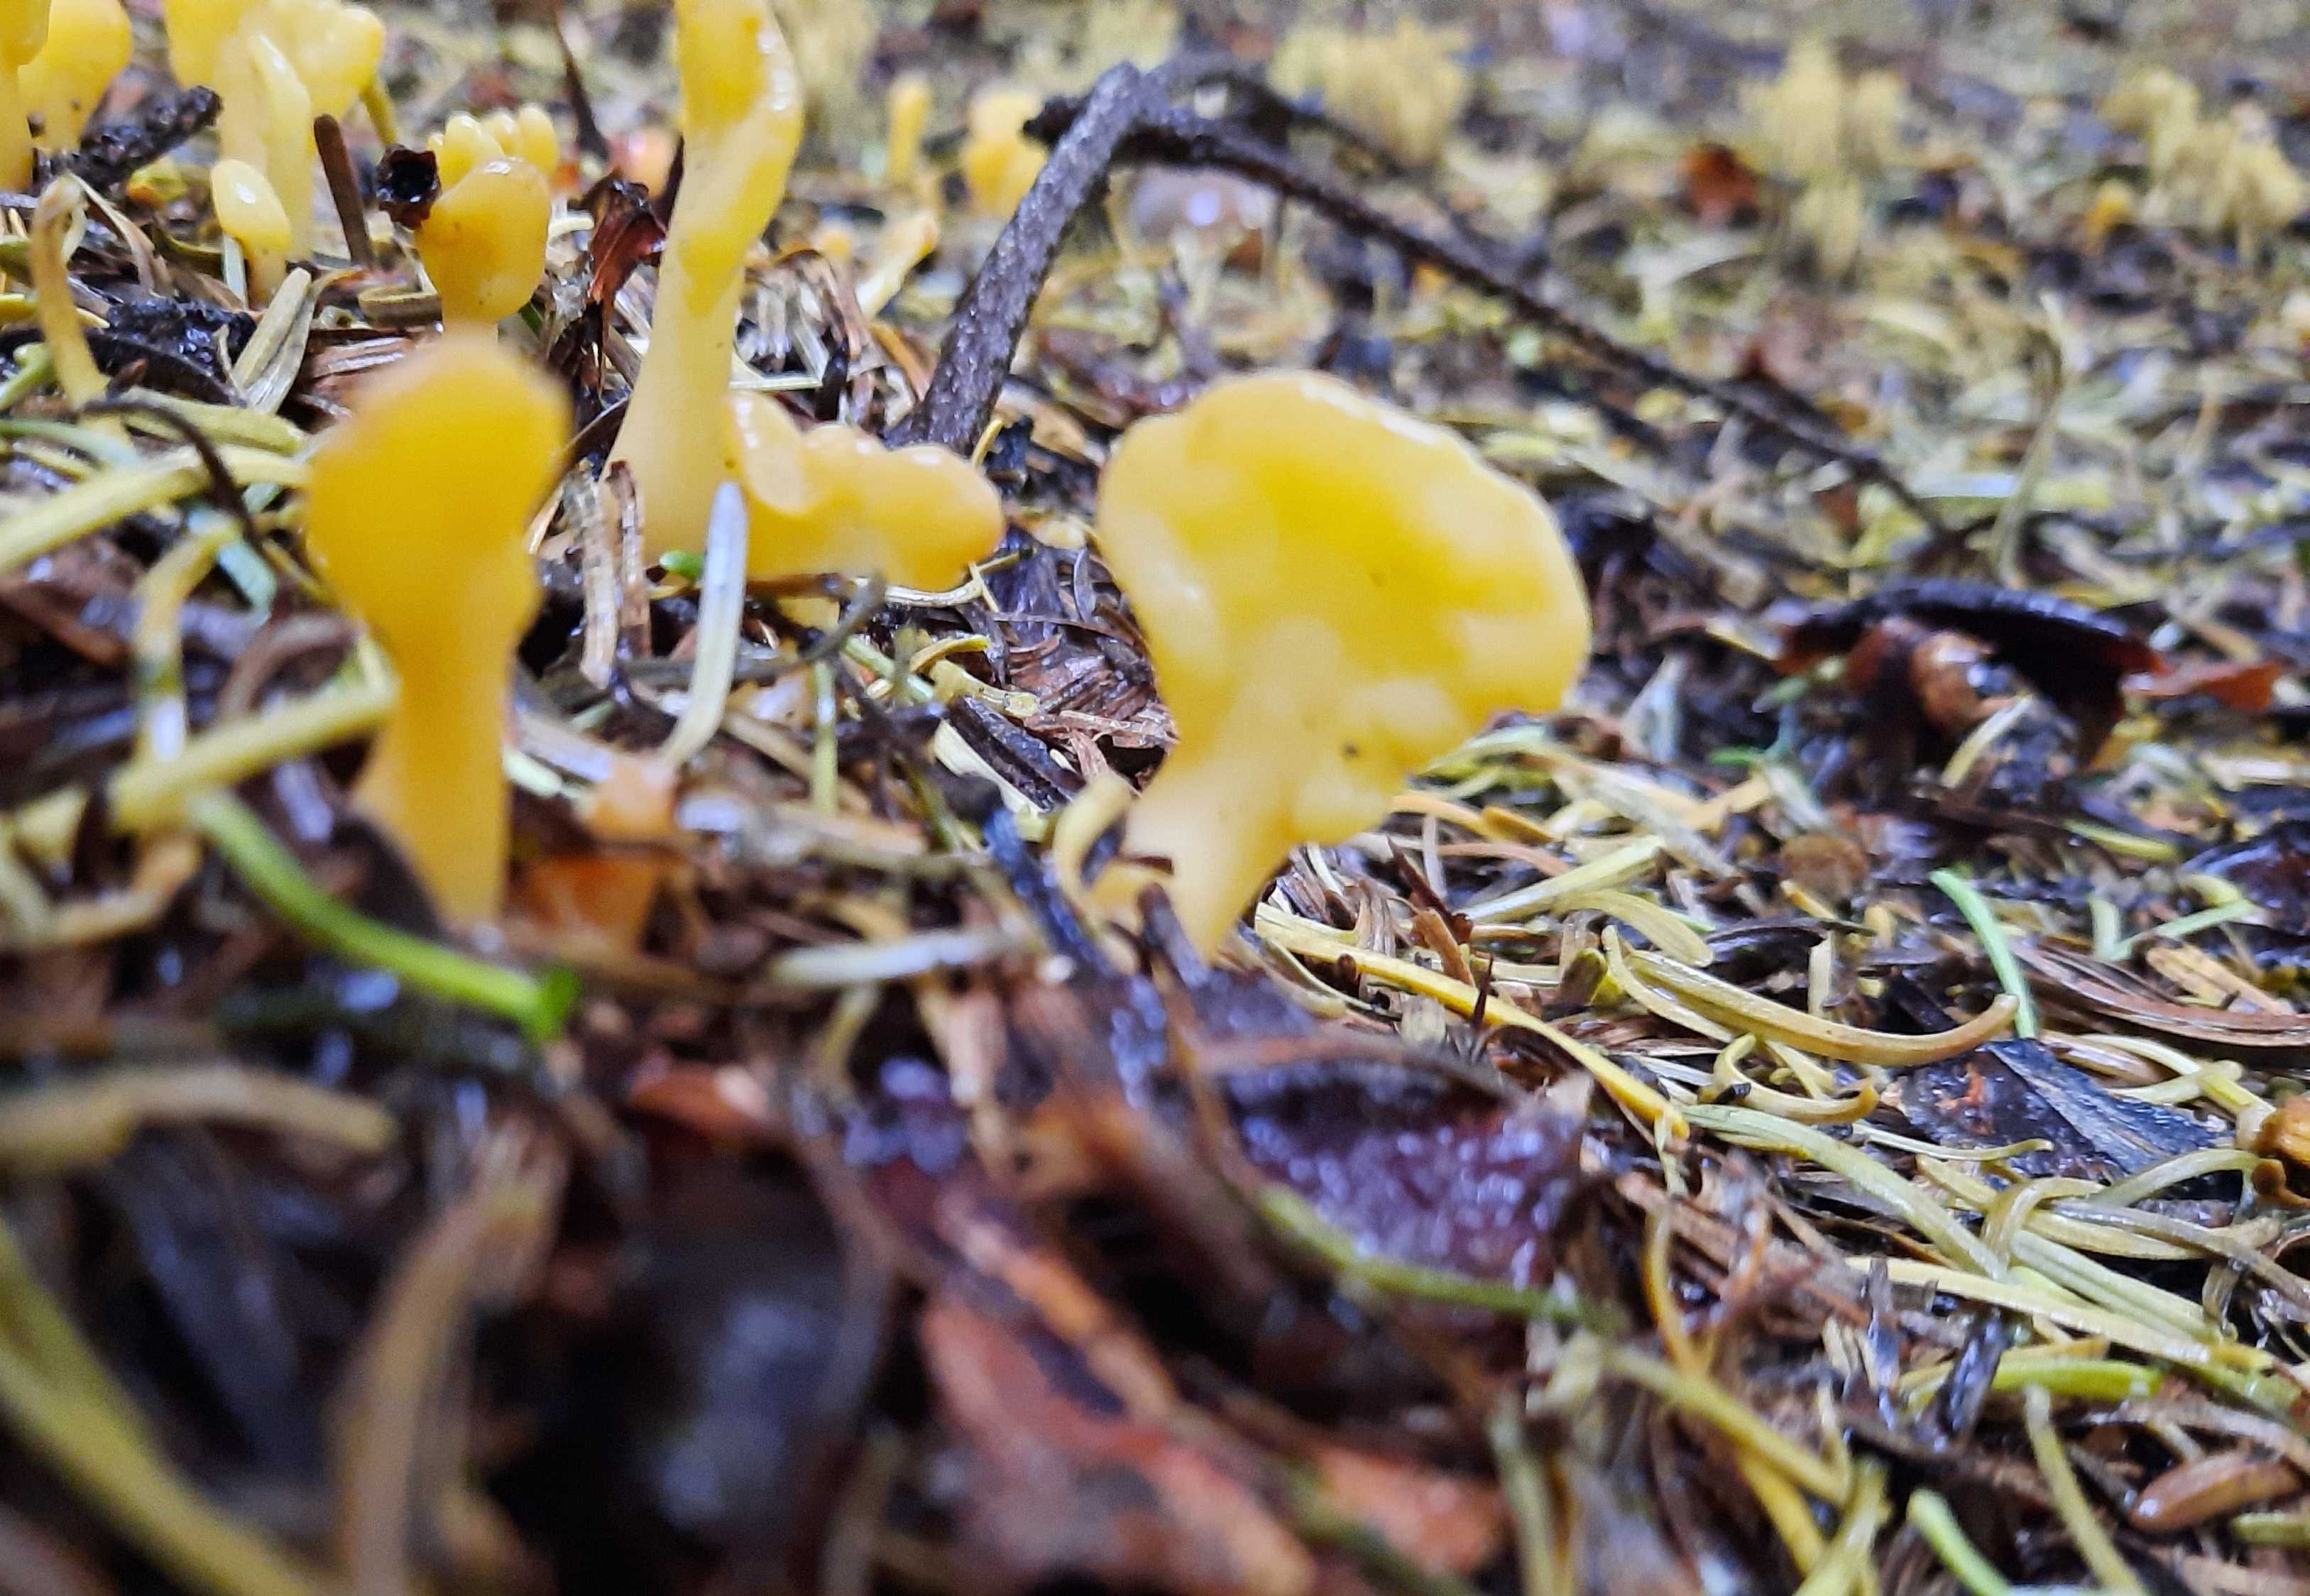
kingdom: Fungi
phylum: Ascomycota
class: Leotiomycetes
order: Rhytismatales
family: Cudoniaceae
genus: Spathularia
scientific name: Spathularia flavida
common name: gul spatelsvamp
